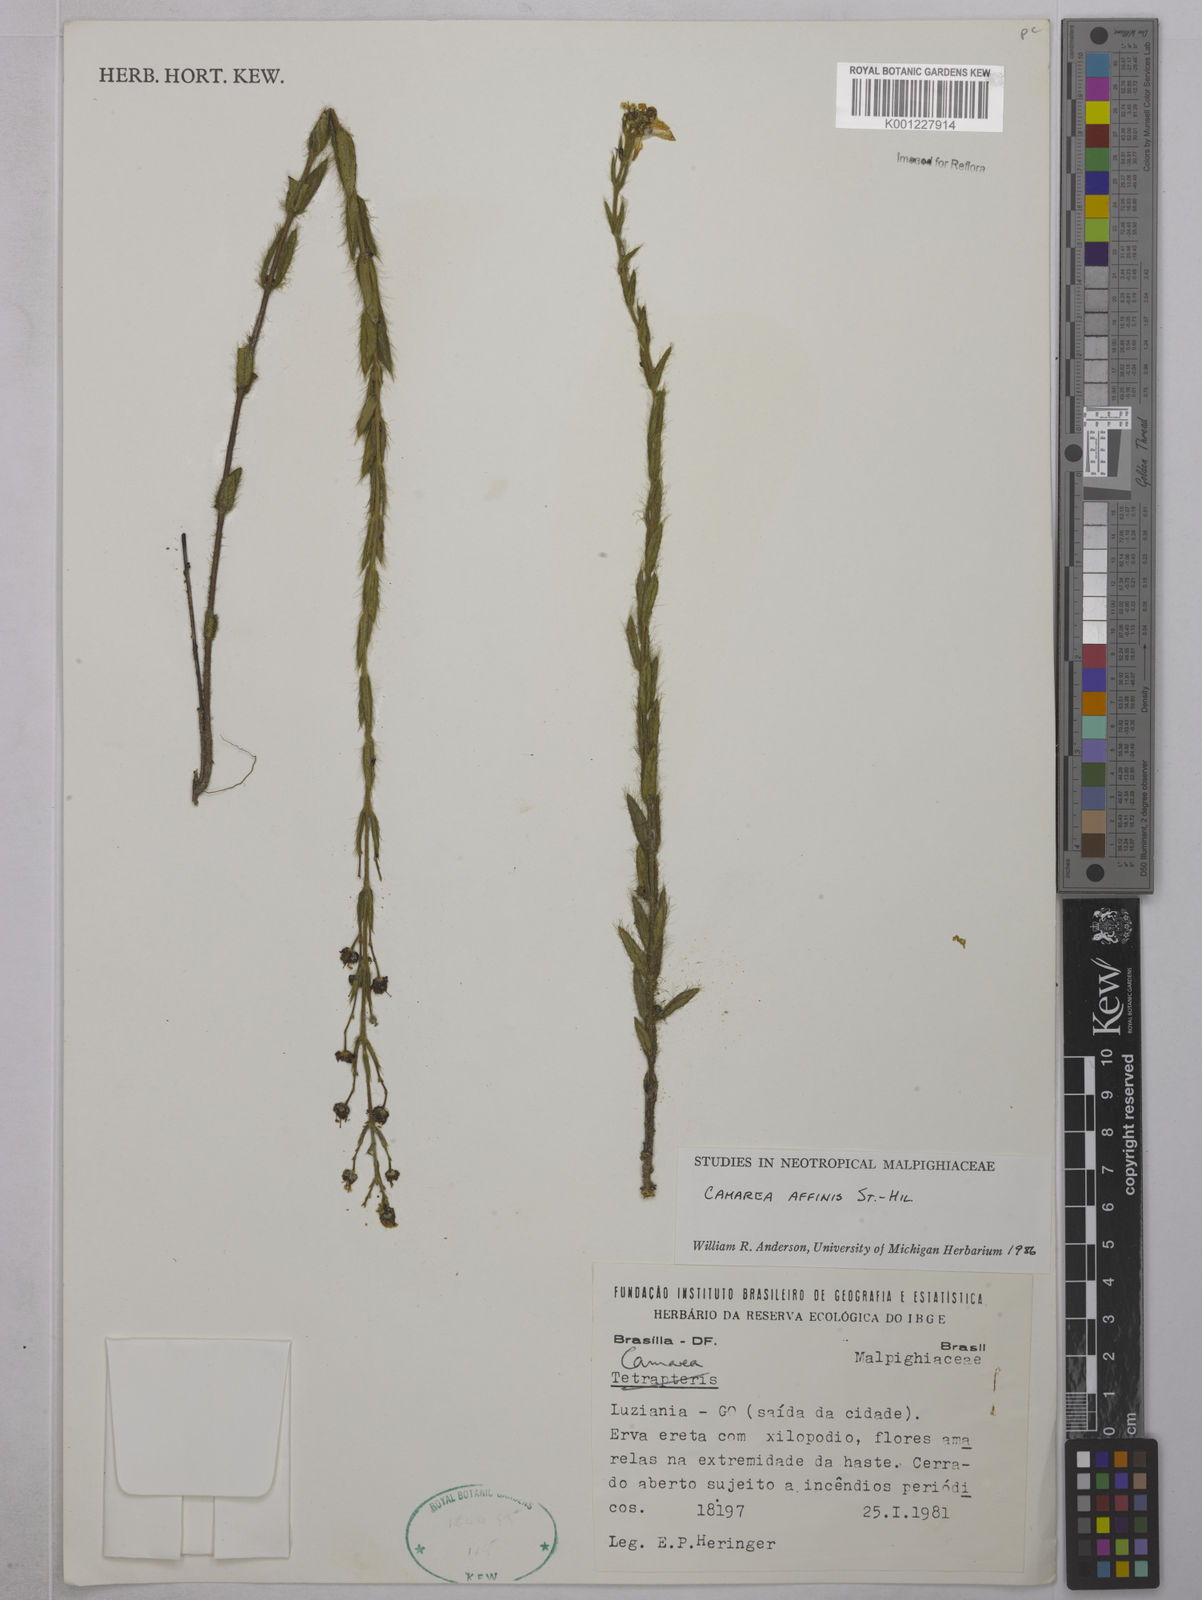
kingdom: Plantae
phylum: Tracheophyta
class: Magnoliopsida
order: Malpighiales
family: Malpighiaceae
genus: Camarea
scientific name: Camarea affinis
